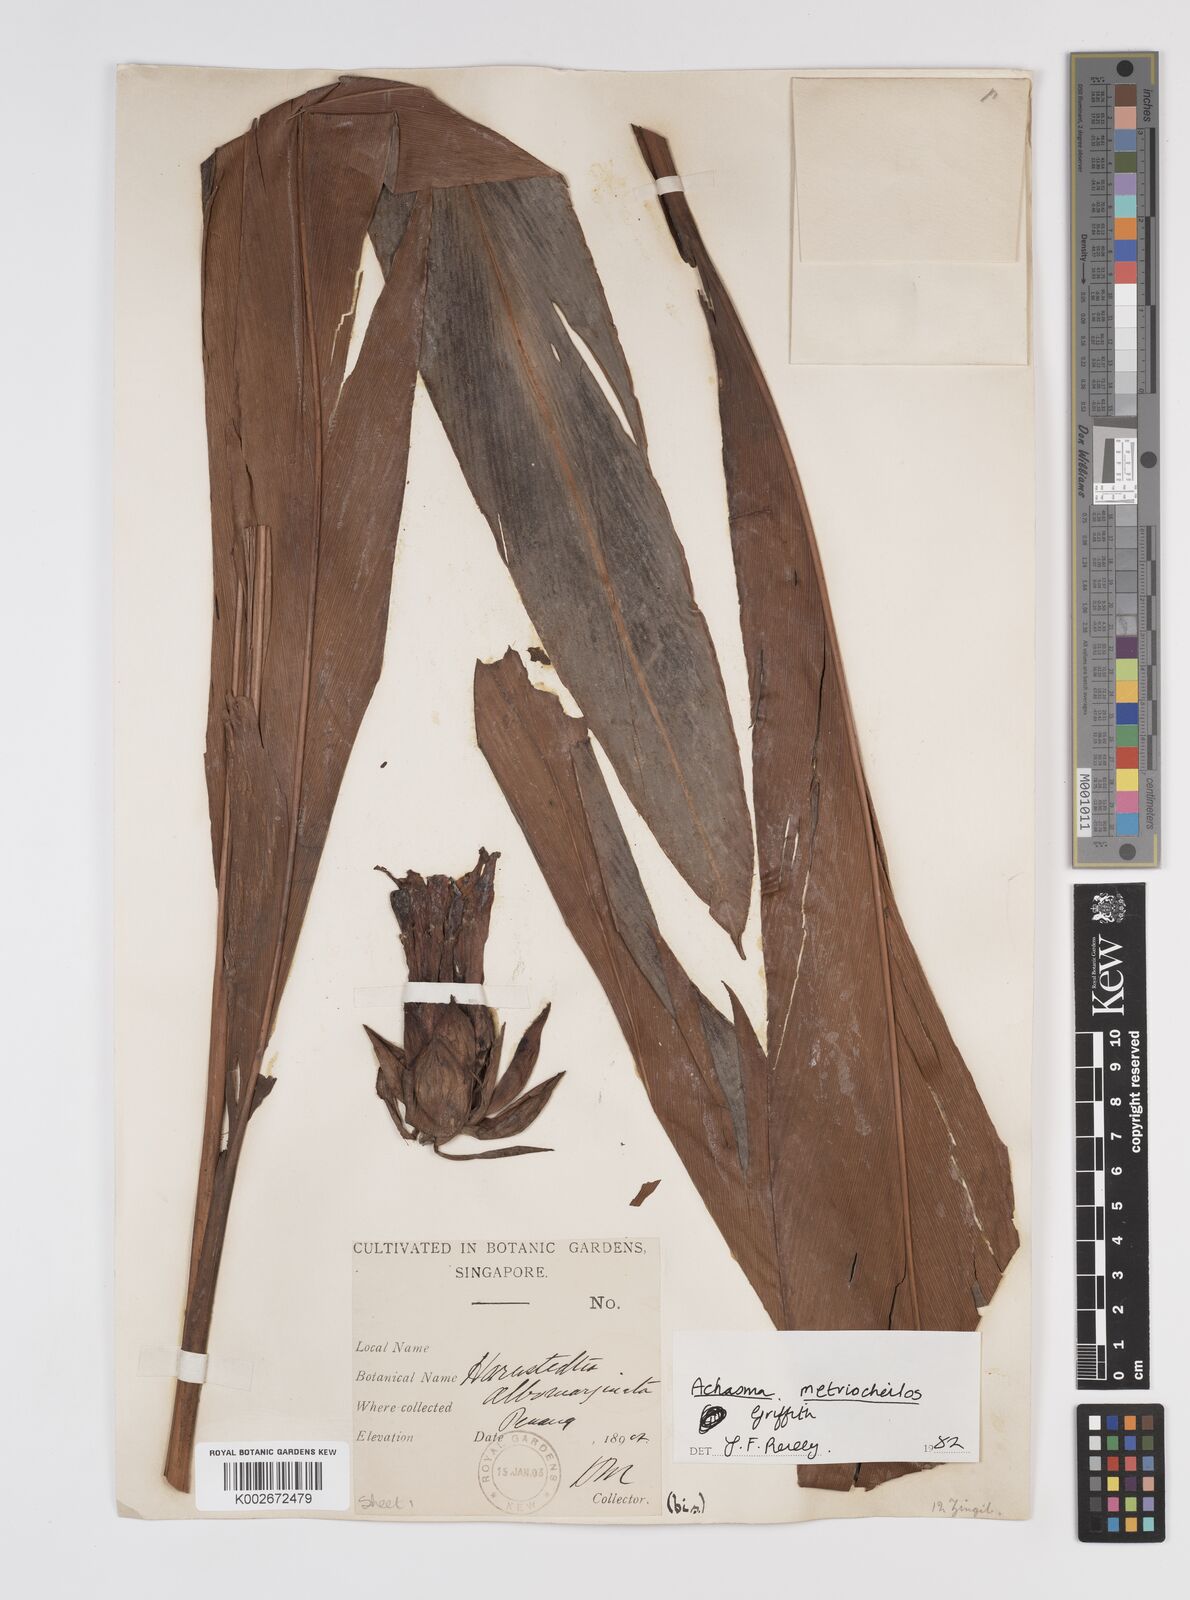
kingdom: Plantae
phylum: Tracheophyta
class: Liliopsida
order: Zingiberales
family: Zingiberaceae
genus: Etlingera
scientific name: Etlingera metriocheilos
